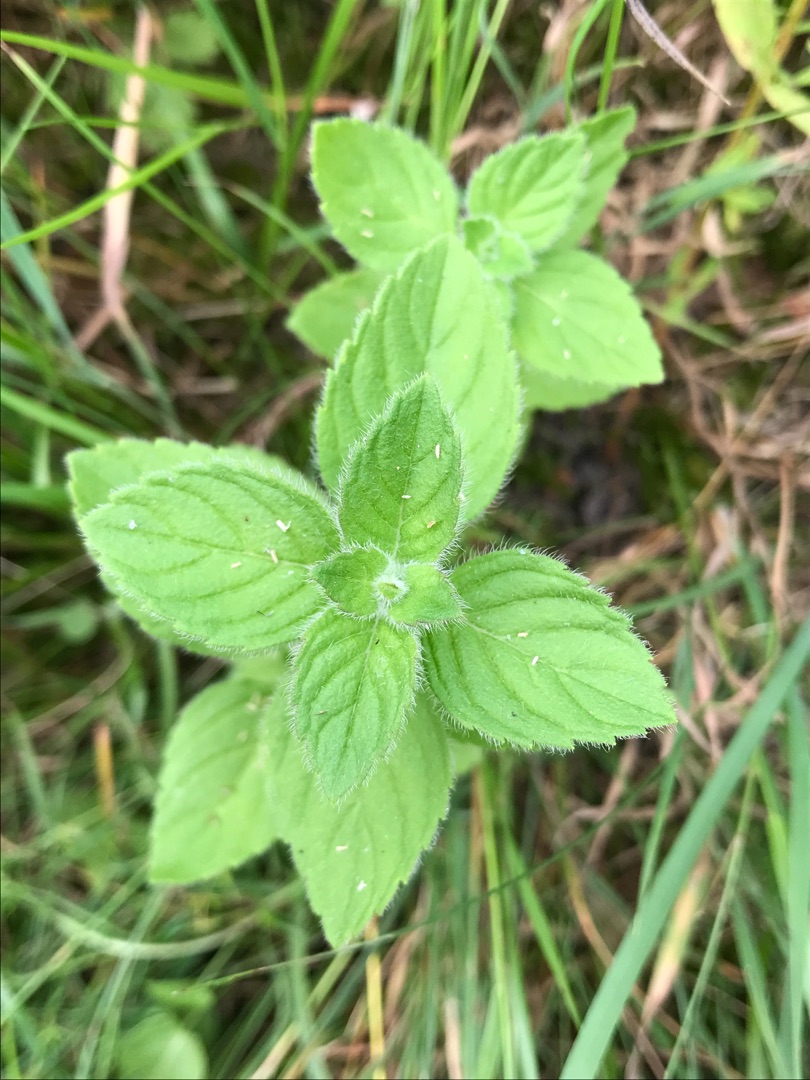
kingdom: Plantae
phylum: Tracheophyta
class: Magnoliopsida
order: Lamiales
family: Lamiaceae
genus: Mentha
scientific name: Mentha arvensis
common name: Ager-mynte
